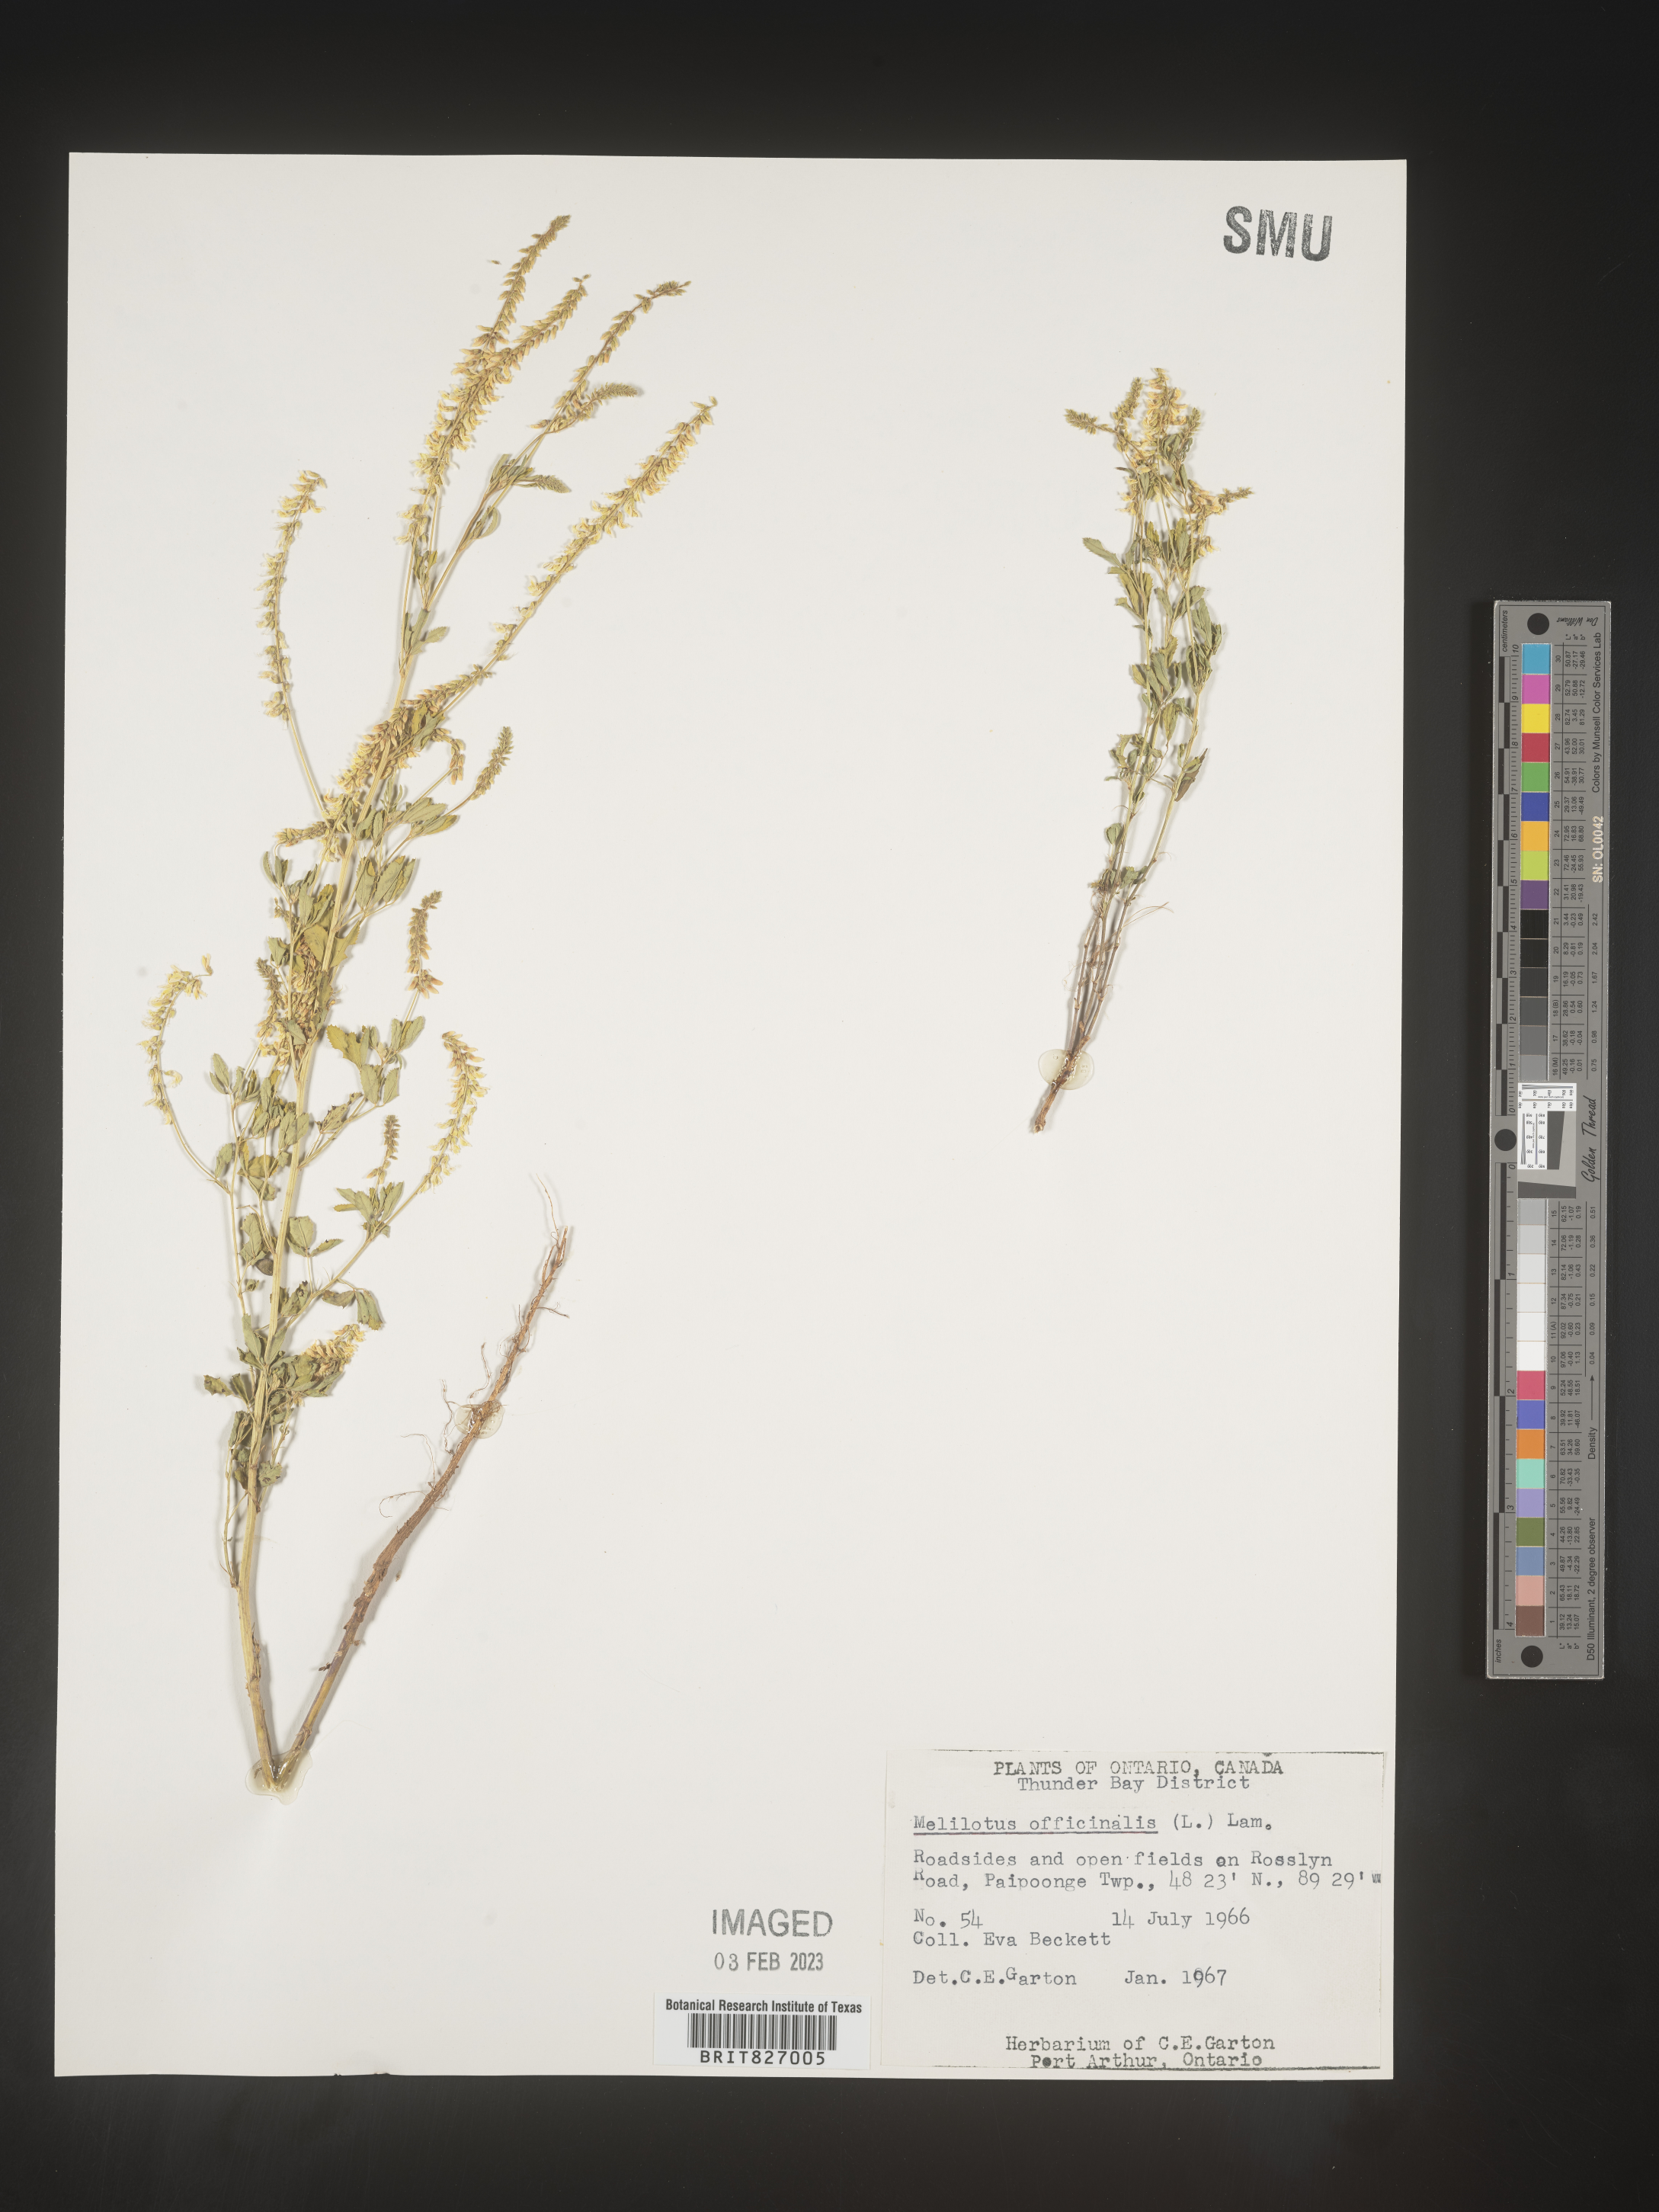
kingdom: Plantae
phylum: Tracheophyta
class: Magnoliopsida
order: Fabales
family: Fabaceae
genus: Melilotus
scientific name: Melilotus officinalis
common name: Sweetclover
